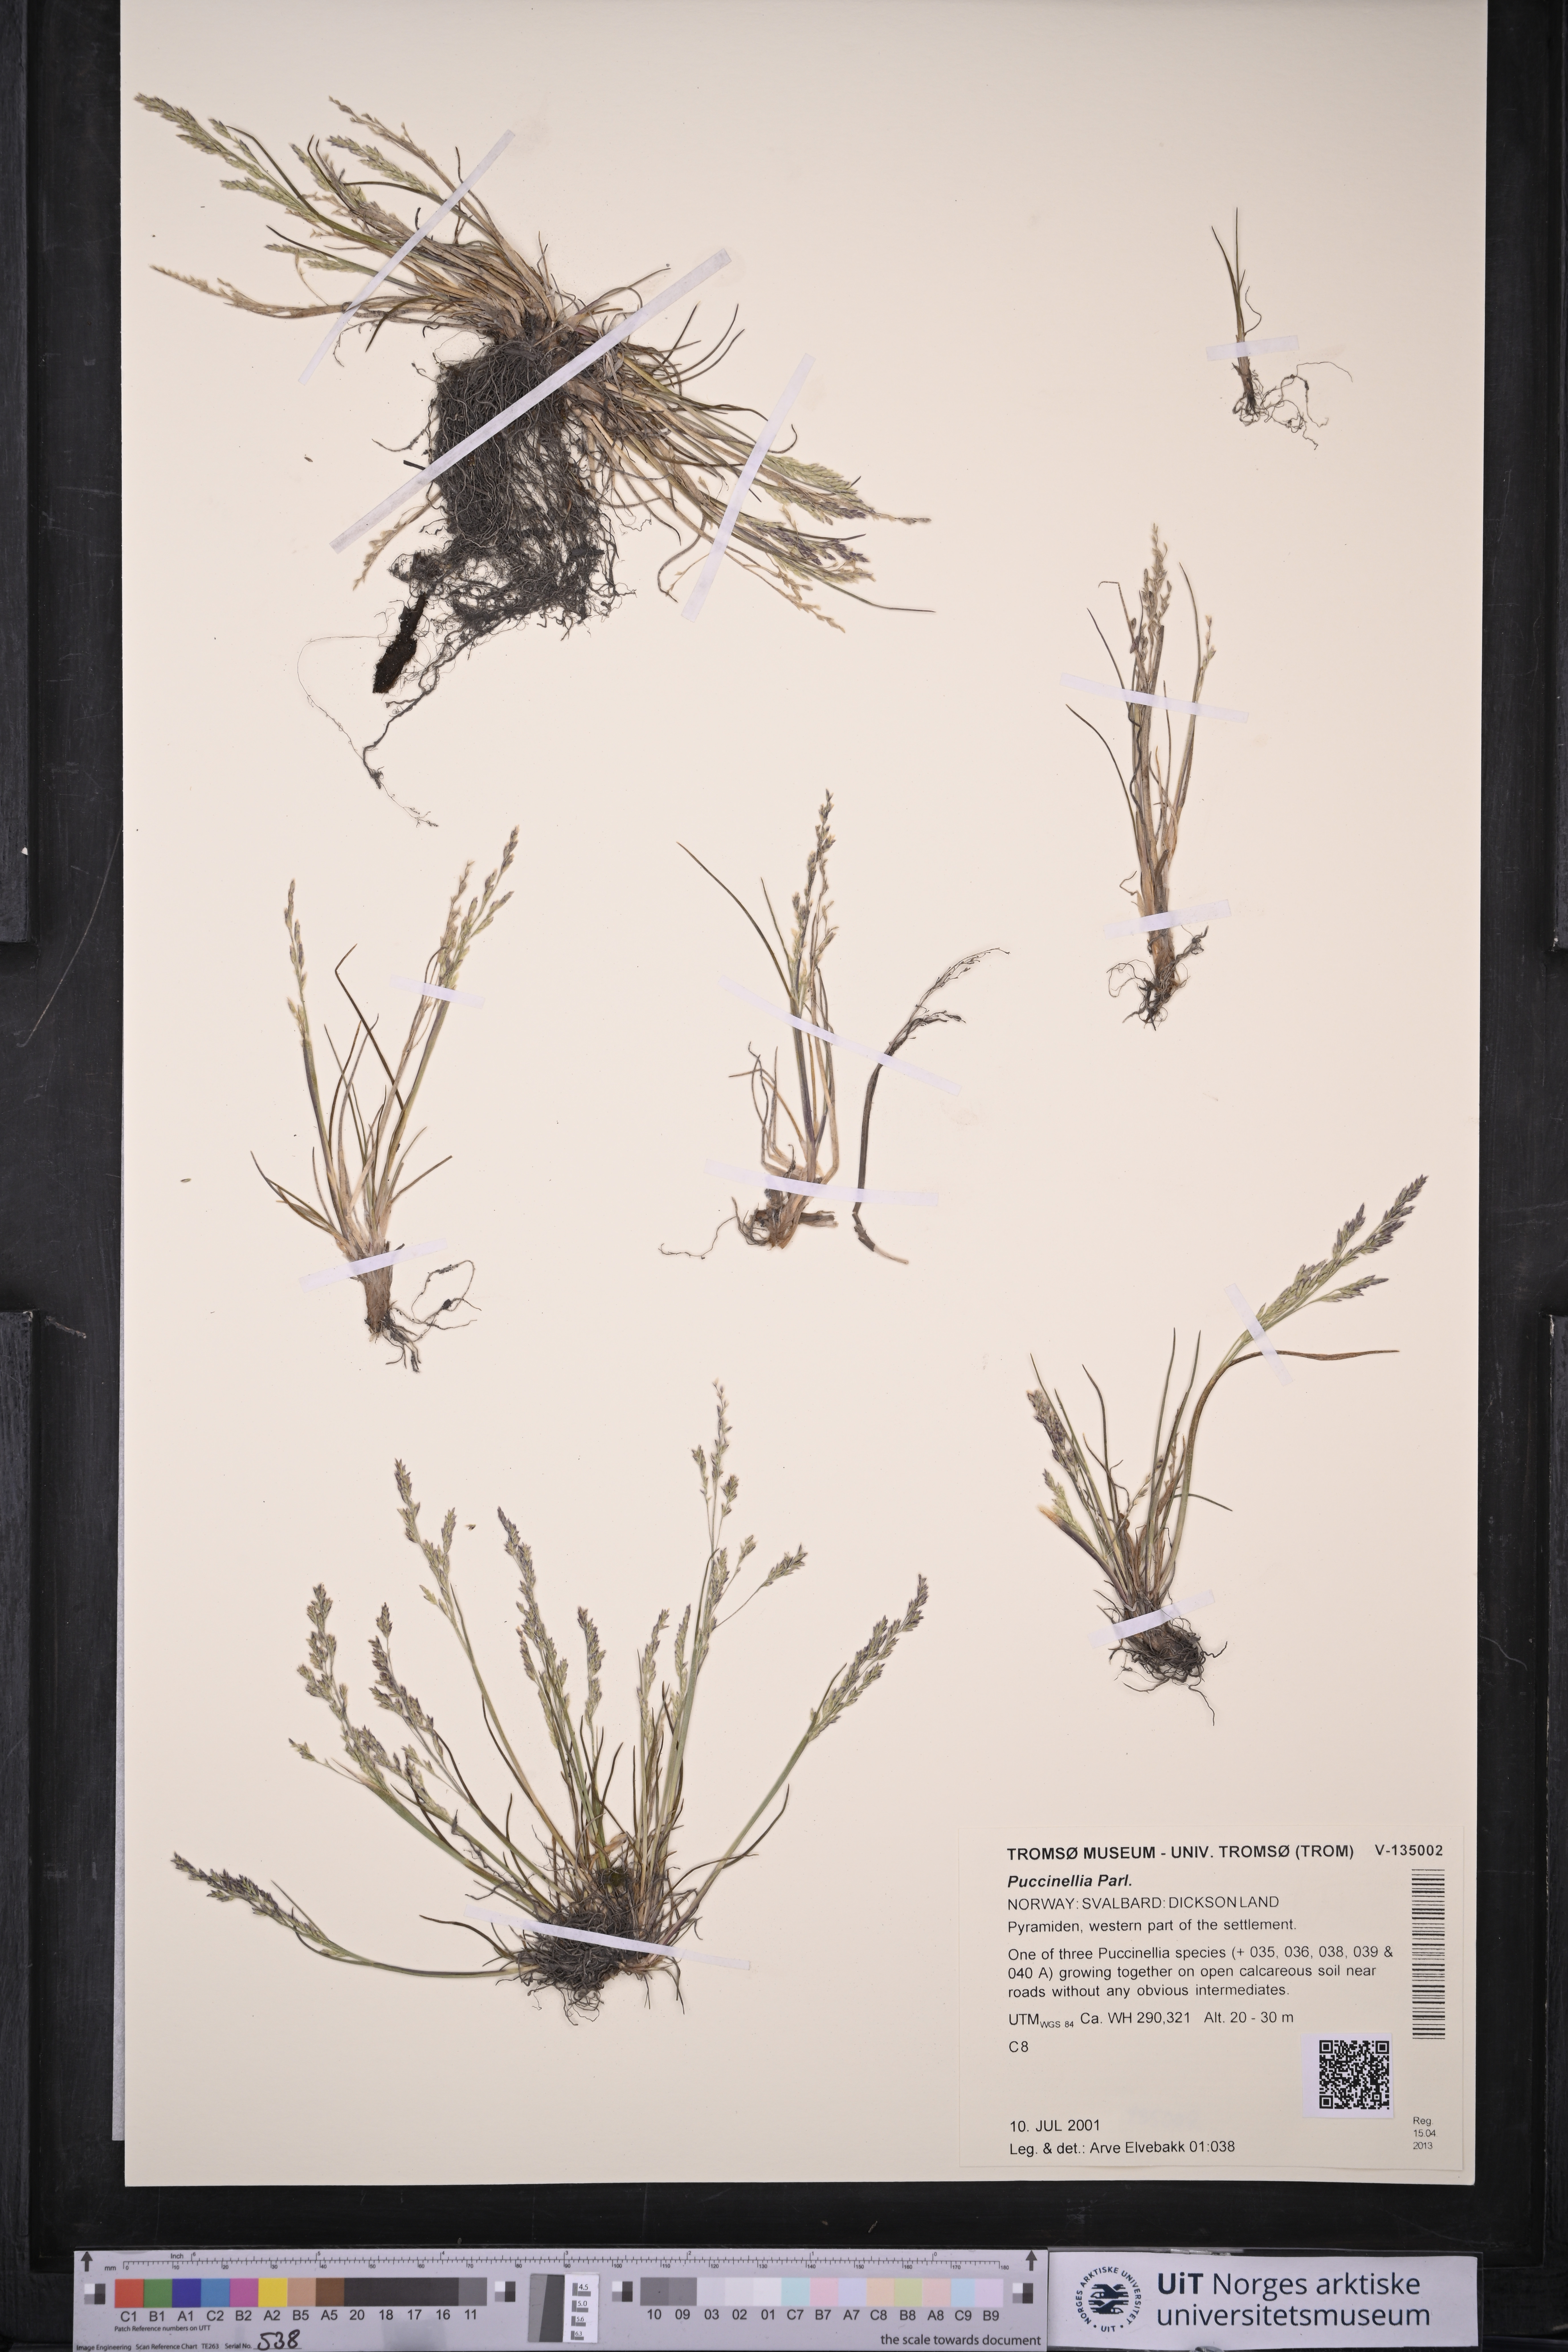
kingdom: Plantae
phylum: Tracheophyta
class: Liliopsida
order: Poales
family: Poaceae
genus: Puccinellia
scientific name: Puccinellia
